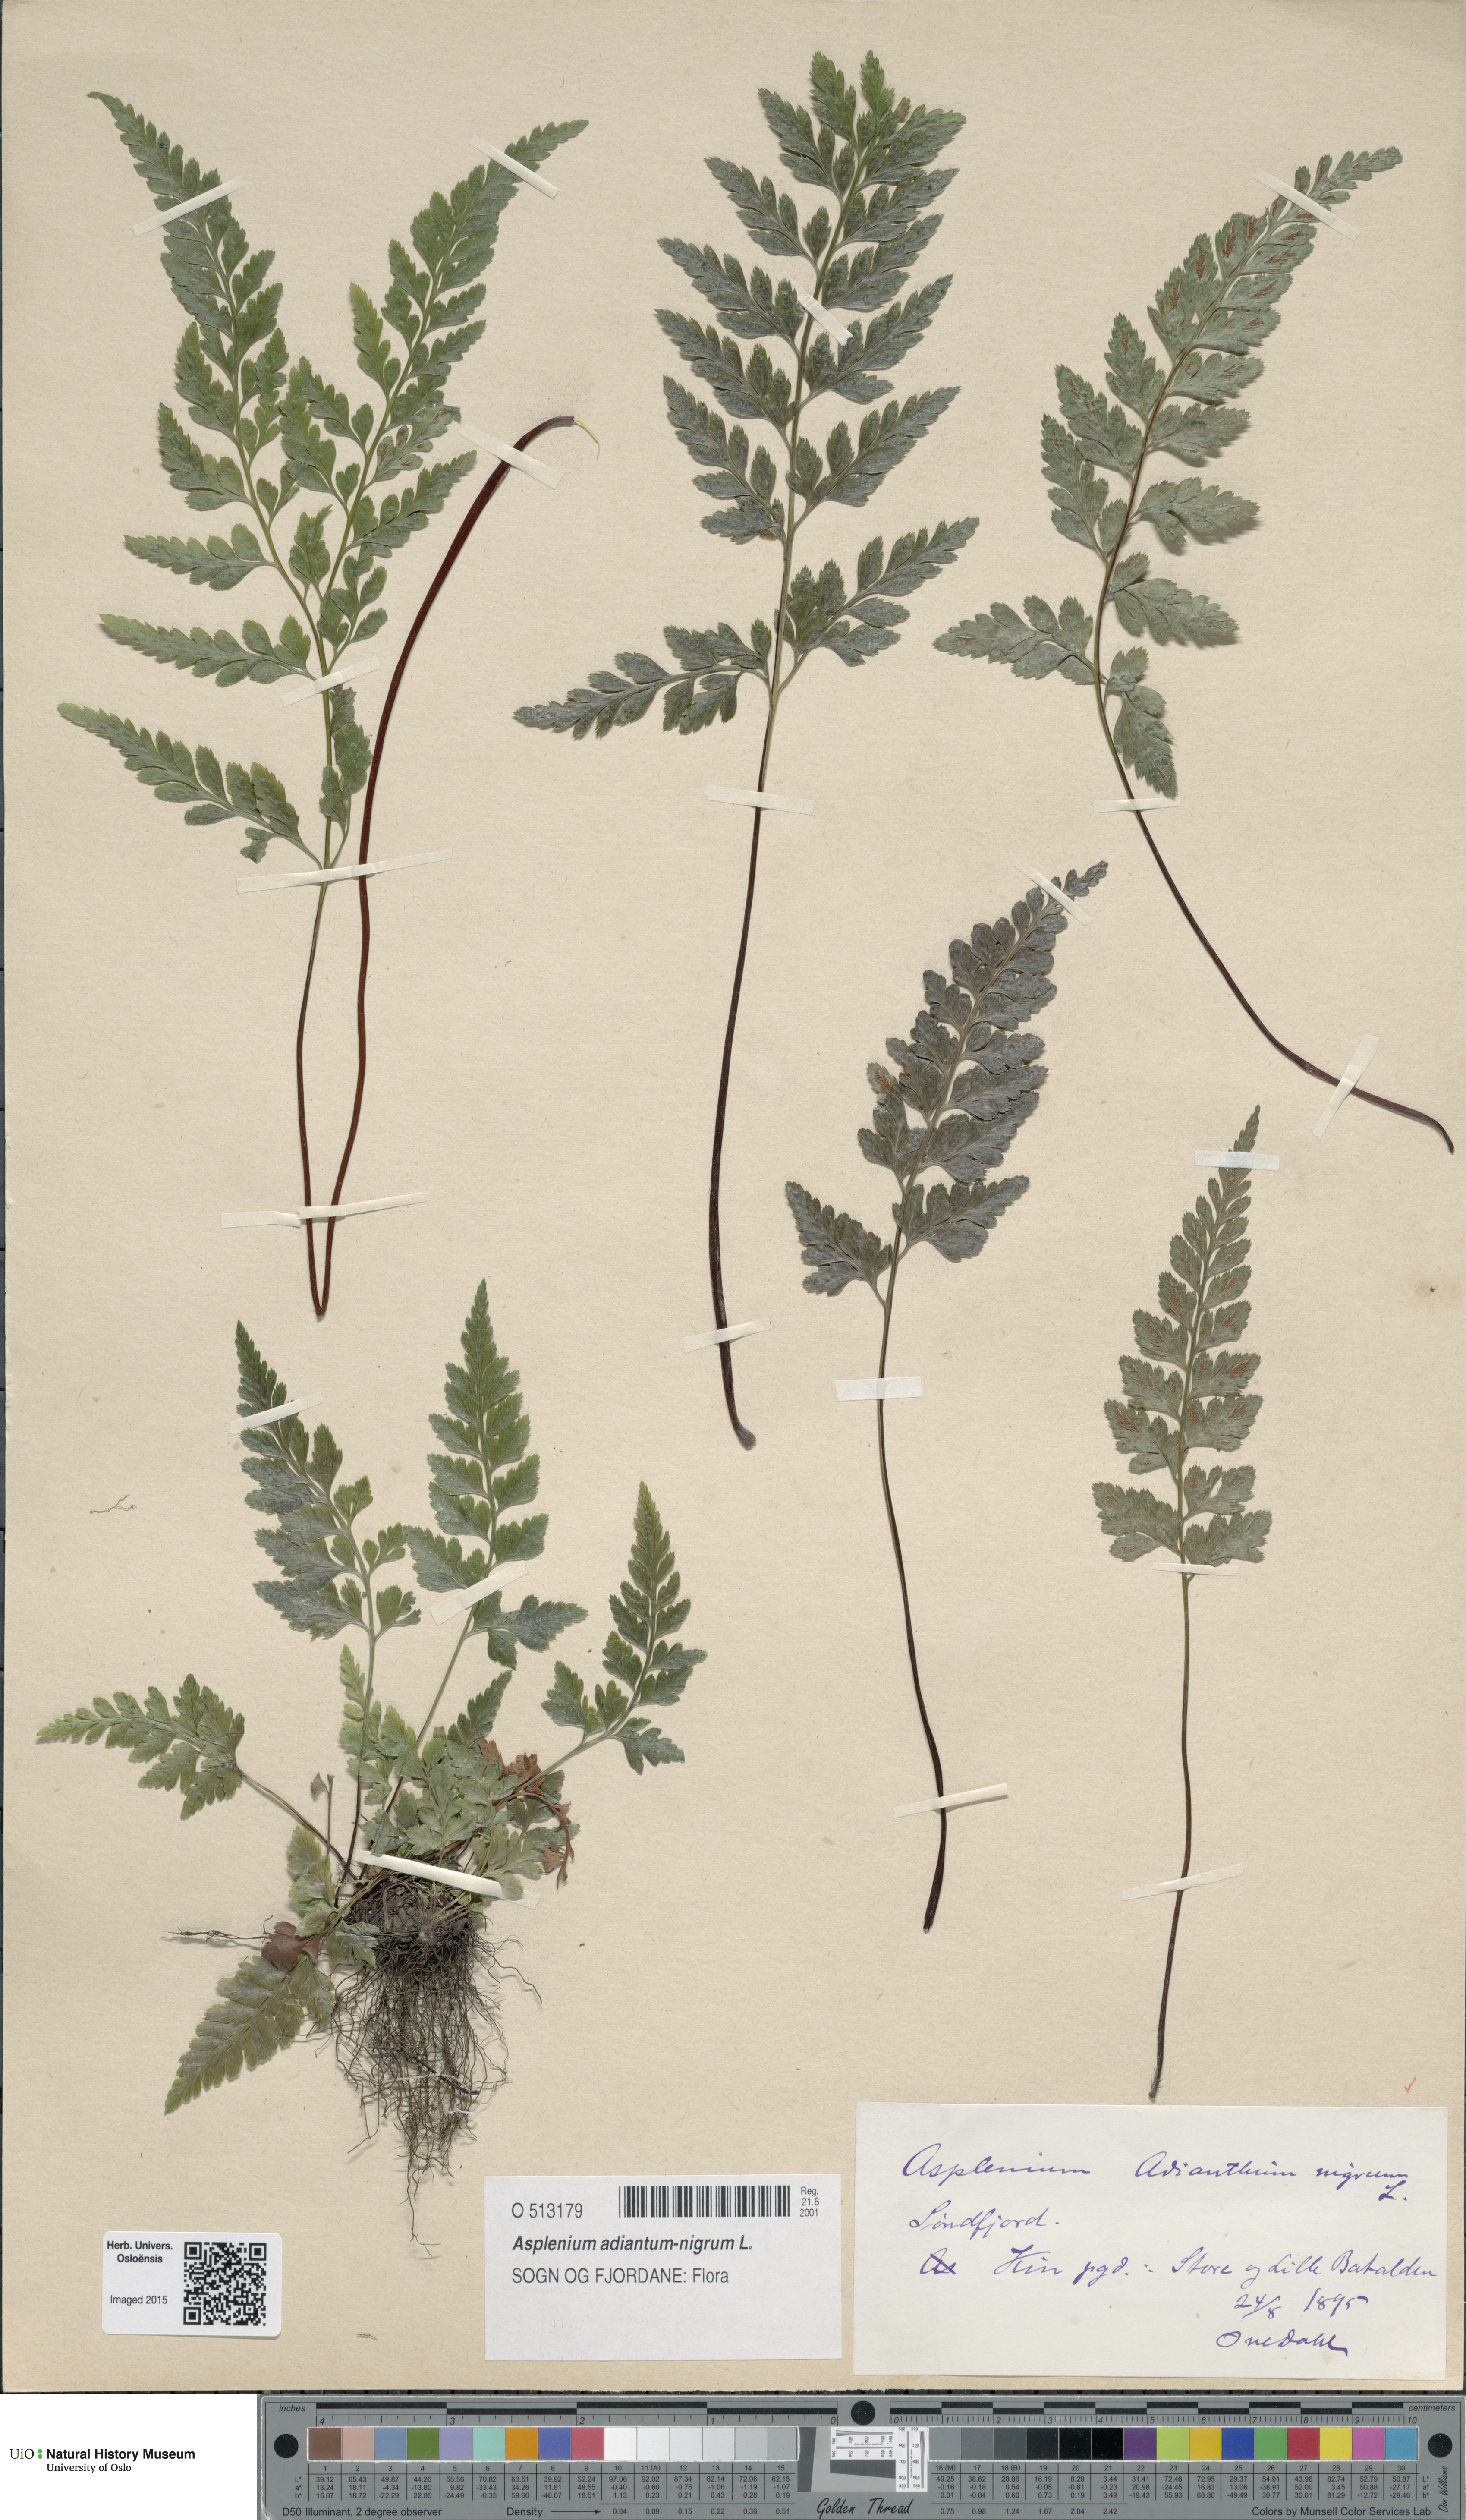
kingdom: Plantae
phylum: Tracheophyta
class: Polypodiopsida
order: Polypodiales
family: Aspleniaceae
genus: Asplenium
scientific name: Asplenium adiantum-nigrum
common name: Black spleenwort
